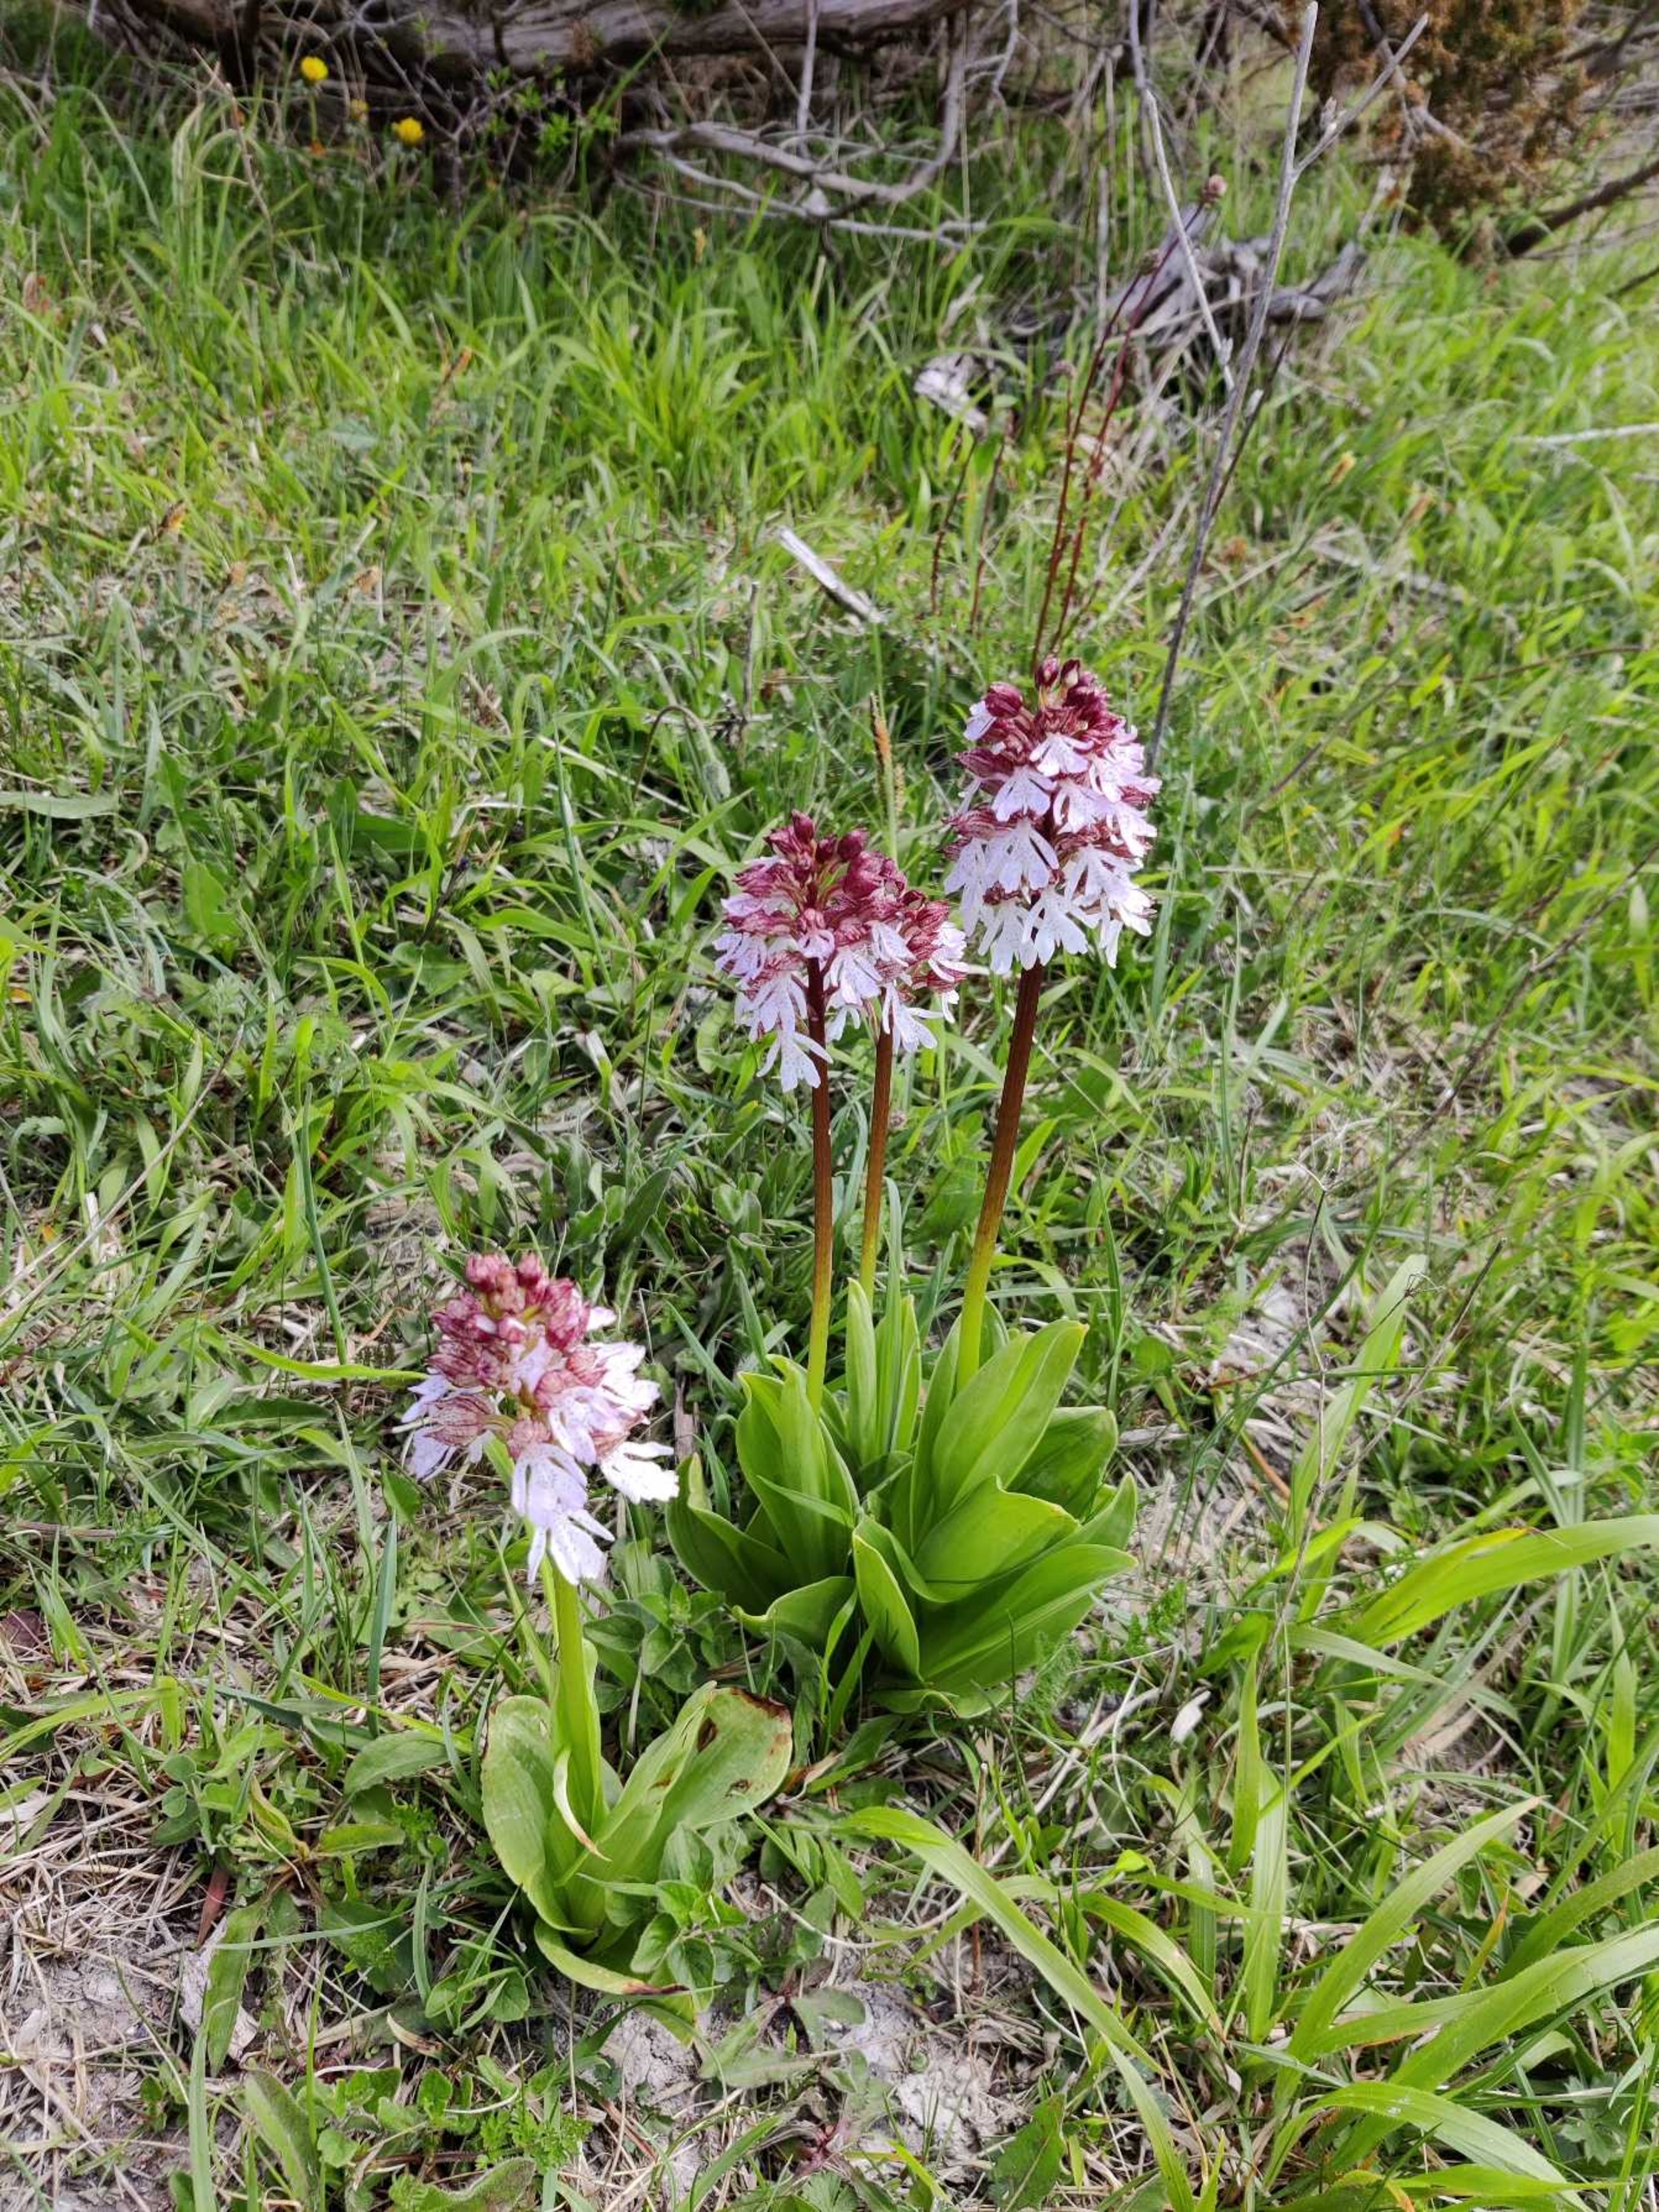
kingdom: Plantae
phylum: Tracheophyta
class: Liliopsida
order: Asparagales
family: Orchidaceae
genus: Orchis
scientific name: Orchis purpurea
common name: Stor gøgeurt
